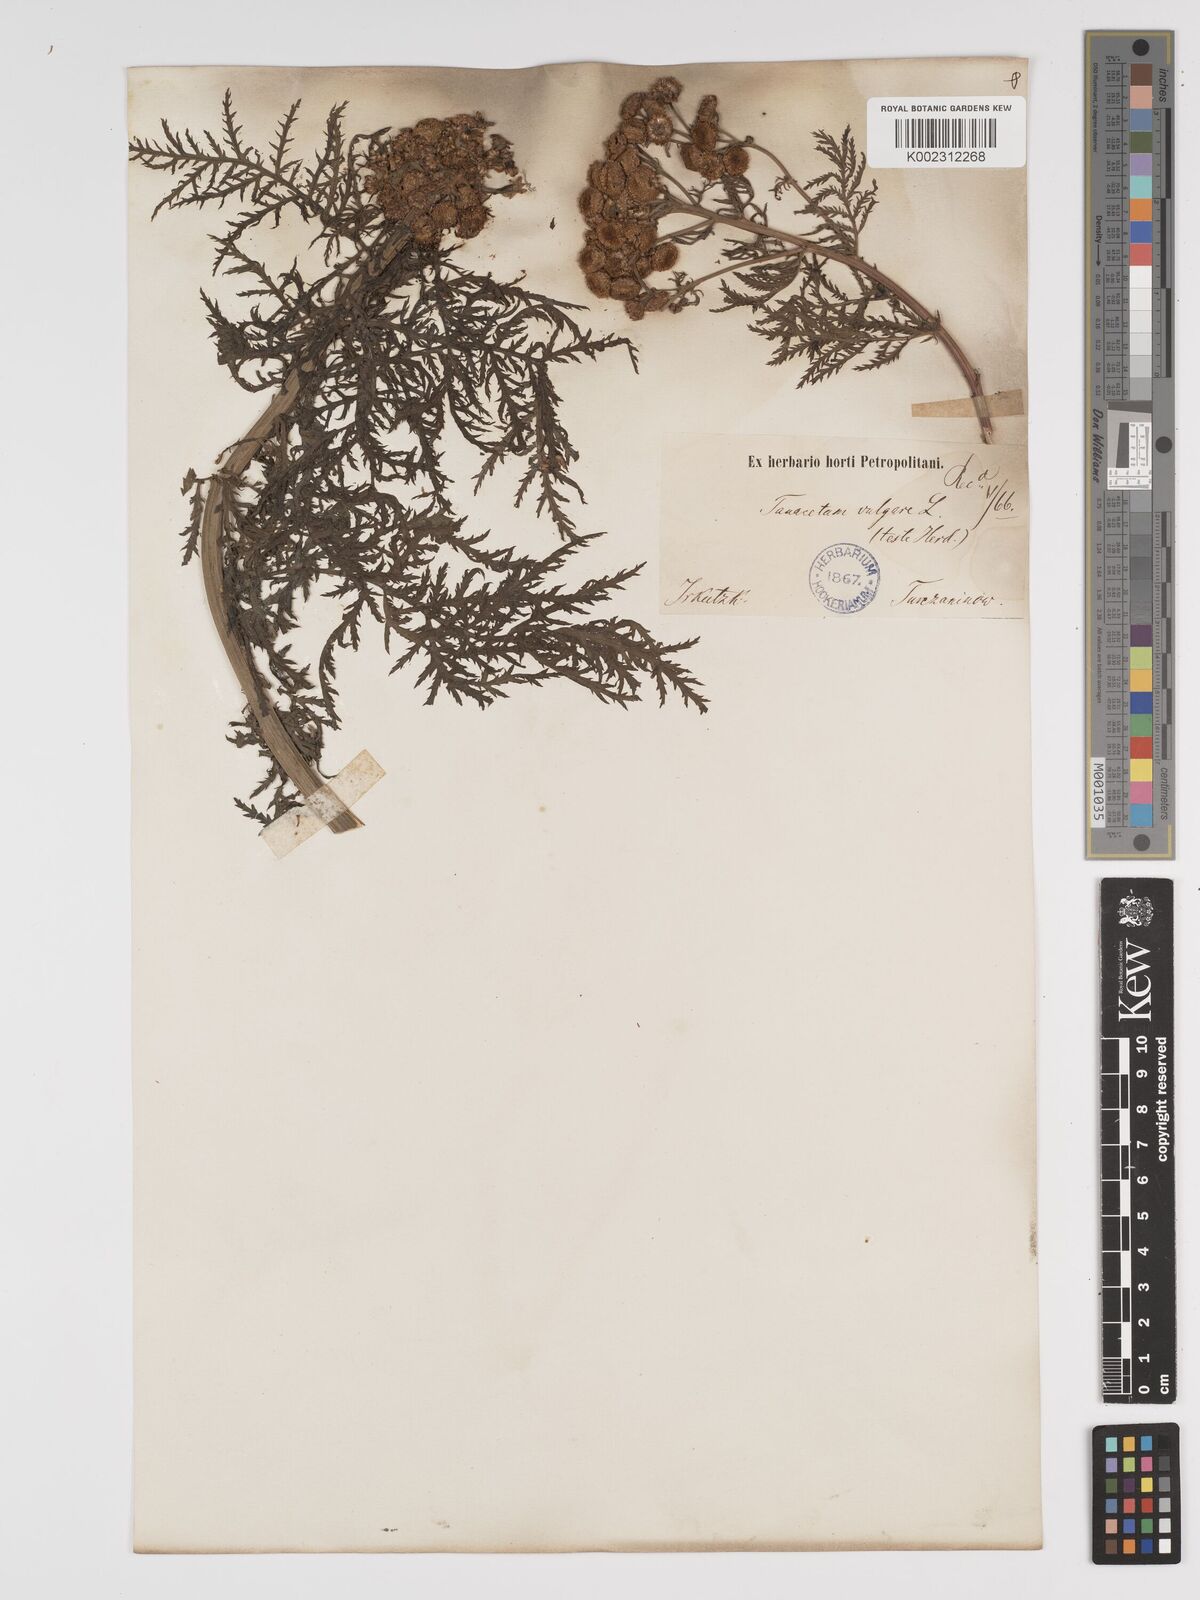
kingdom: Plantae
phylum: Tracheophyta
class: Magnoliopsida
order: Asterales
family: Asteraceae
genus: Tanacetum
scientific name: Tanacetum vulgare
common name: Common tansy
